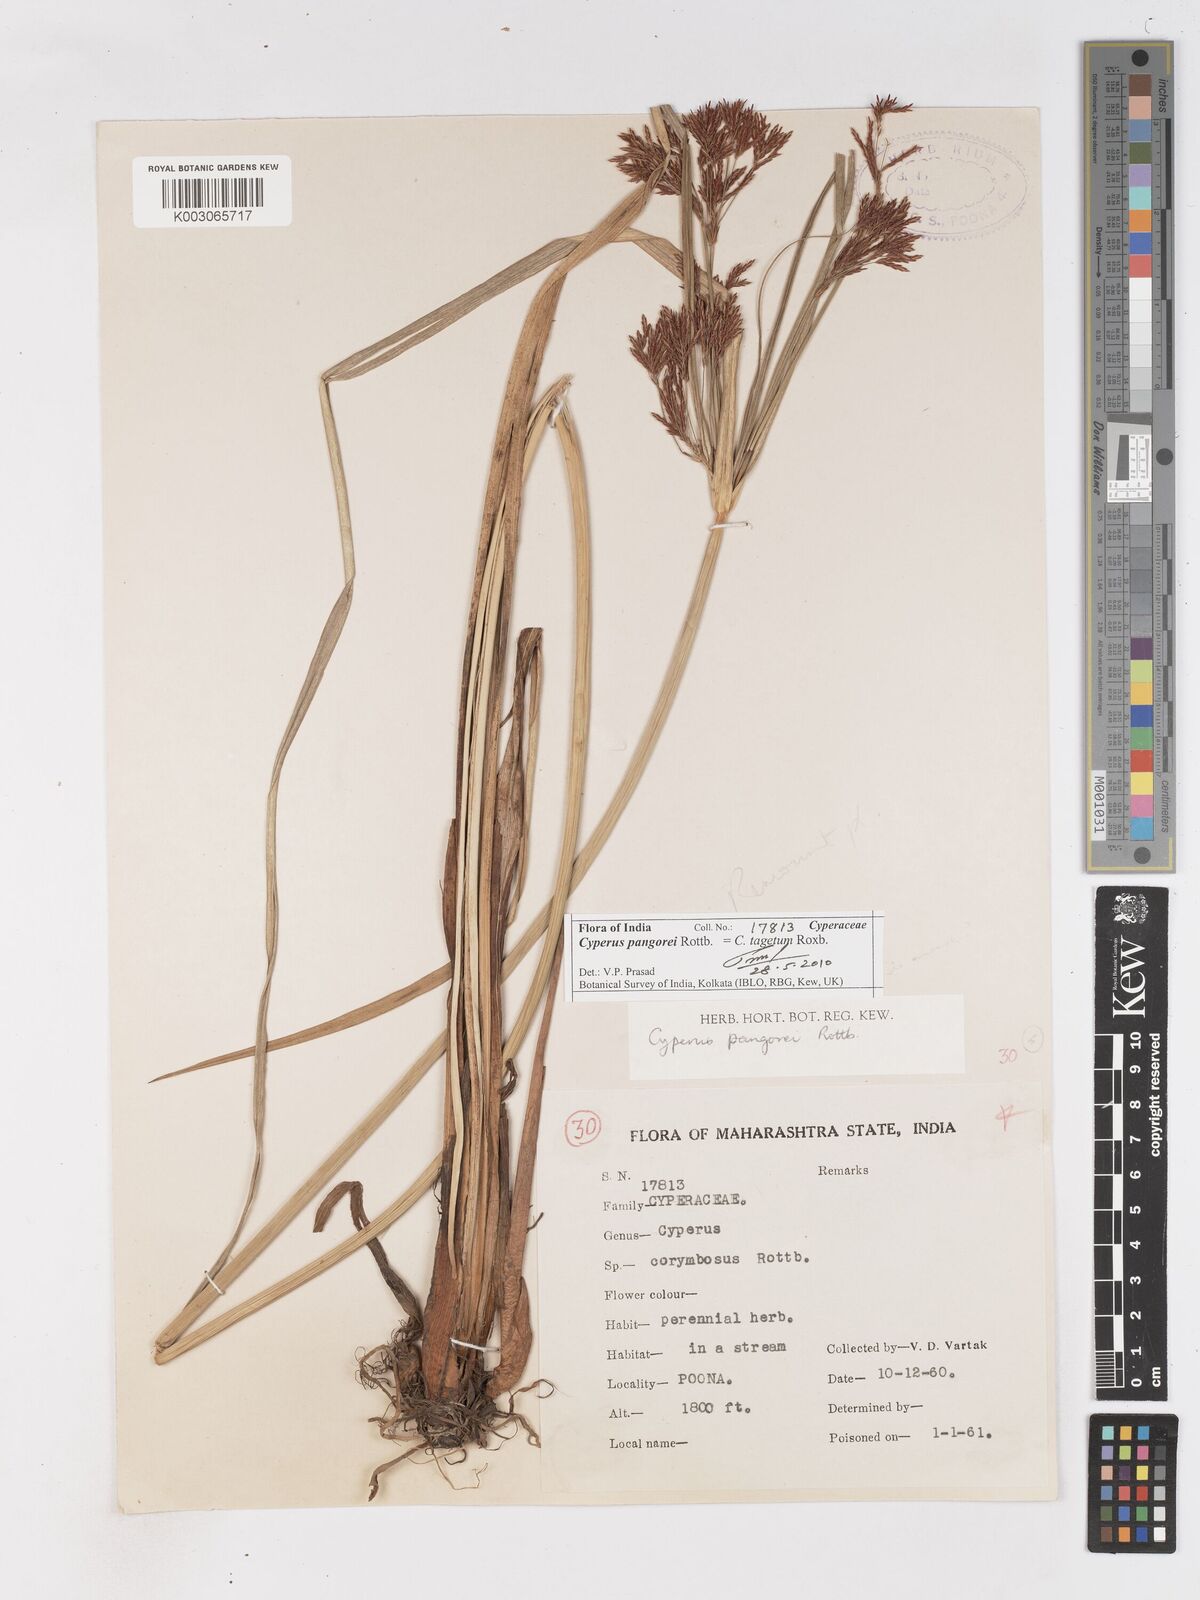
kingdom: Plantae
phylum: Tracheophyta
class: Liliopsida
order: Poales
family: Cyperaceae
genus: Cyperus
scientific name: Cyperus pangorei
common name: Mat sedge
